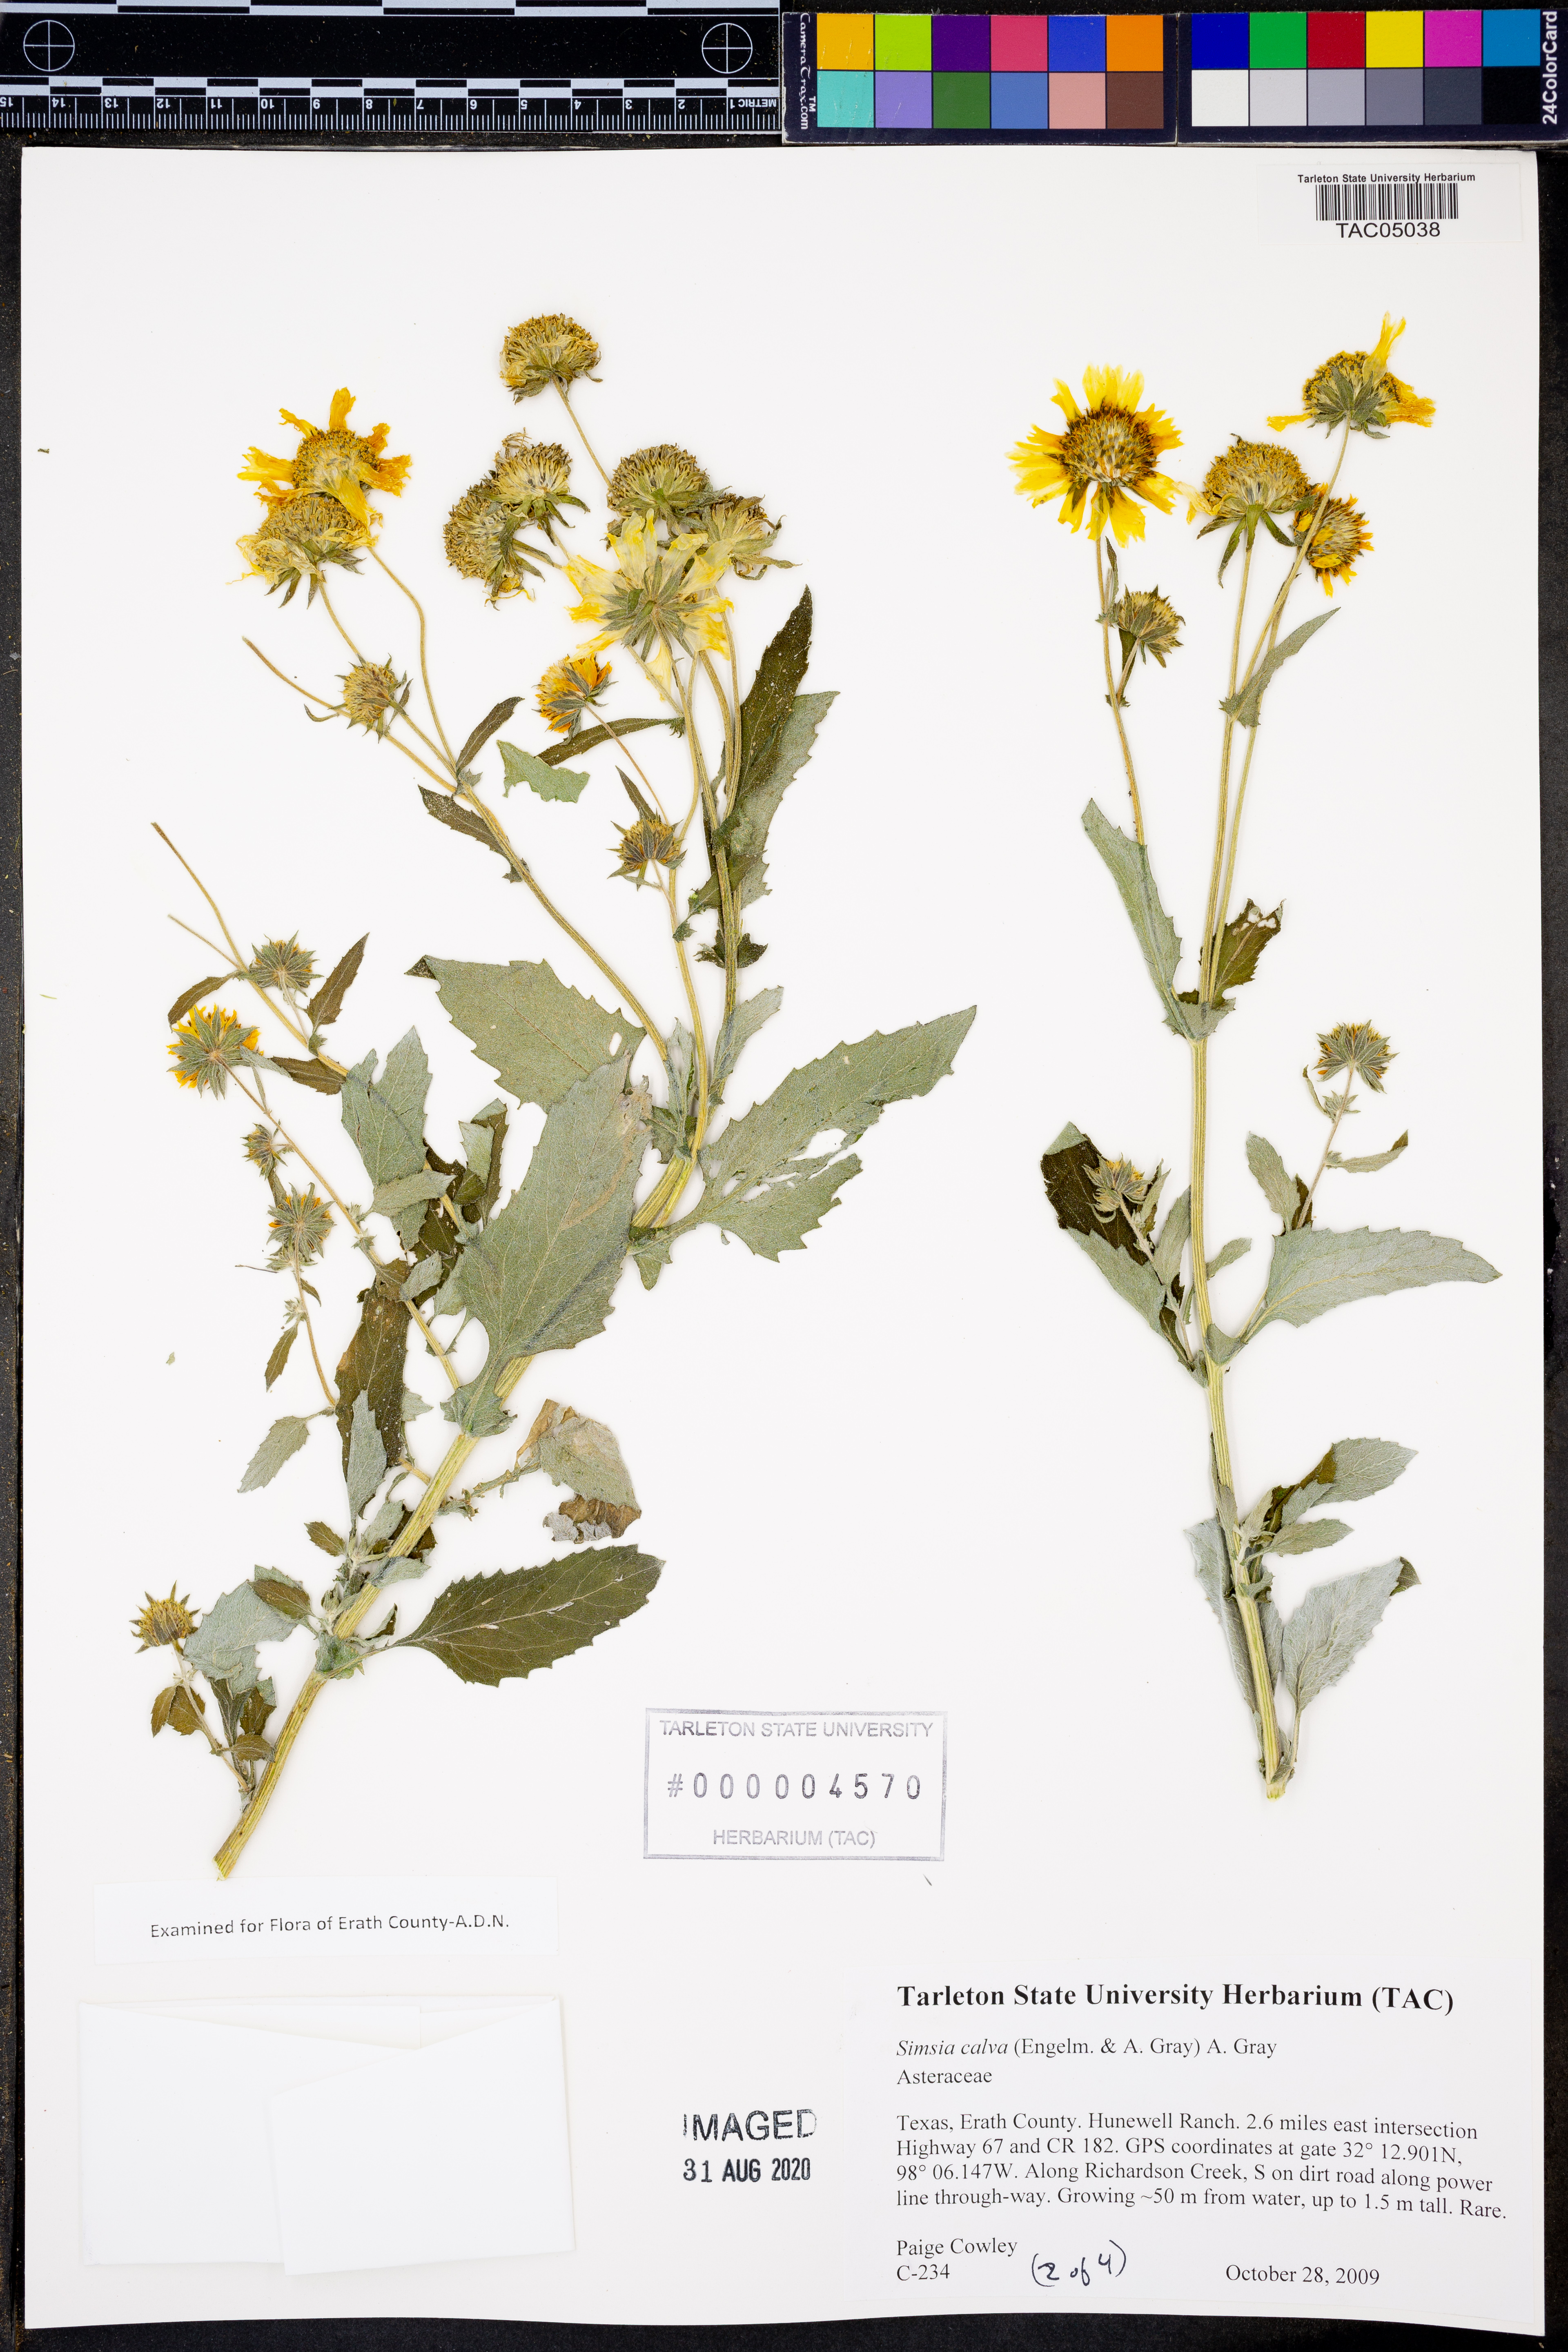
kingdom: Plantae
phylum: Tracheophyta
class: Magnoliopsida
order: Asterales
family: Asteraceae
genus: Simsia
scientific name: Simsia calva
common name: Awnless bush-sunflower
